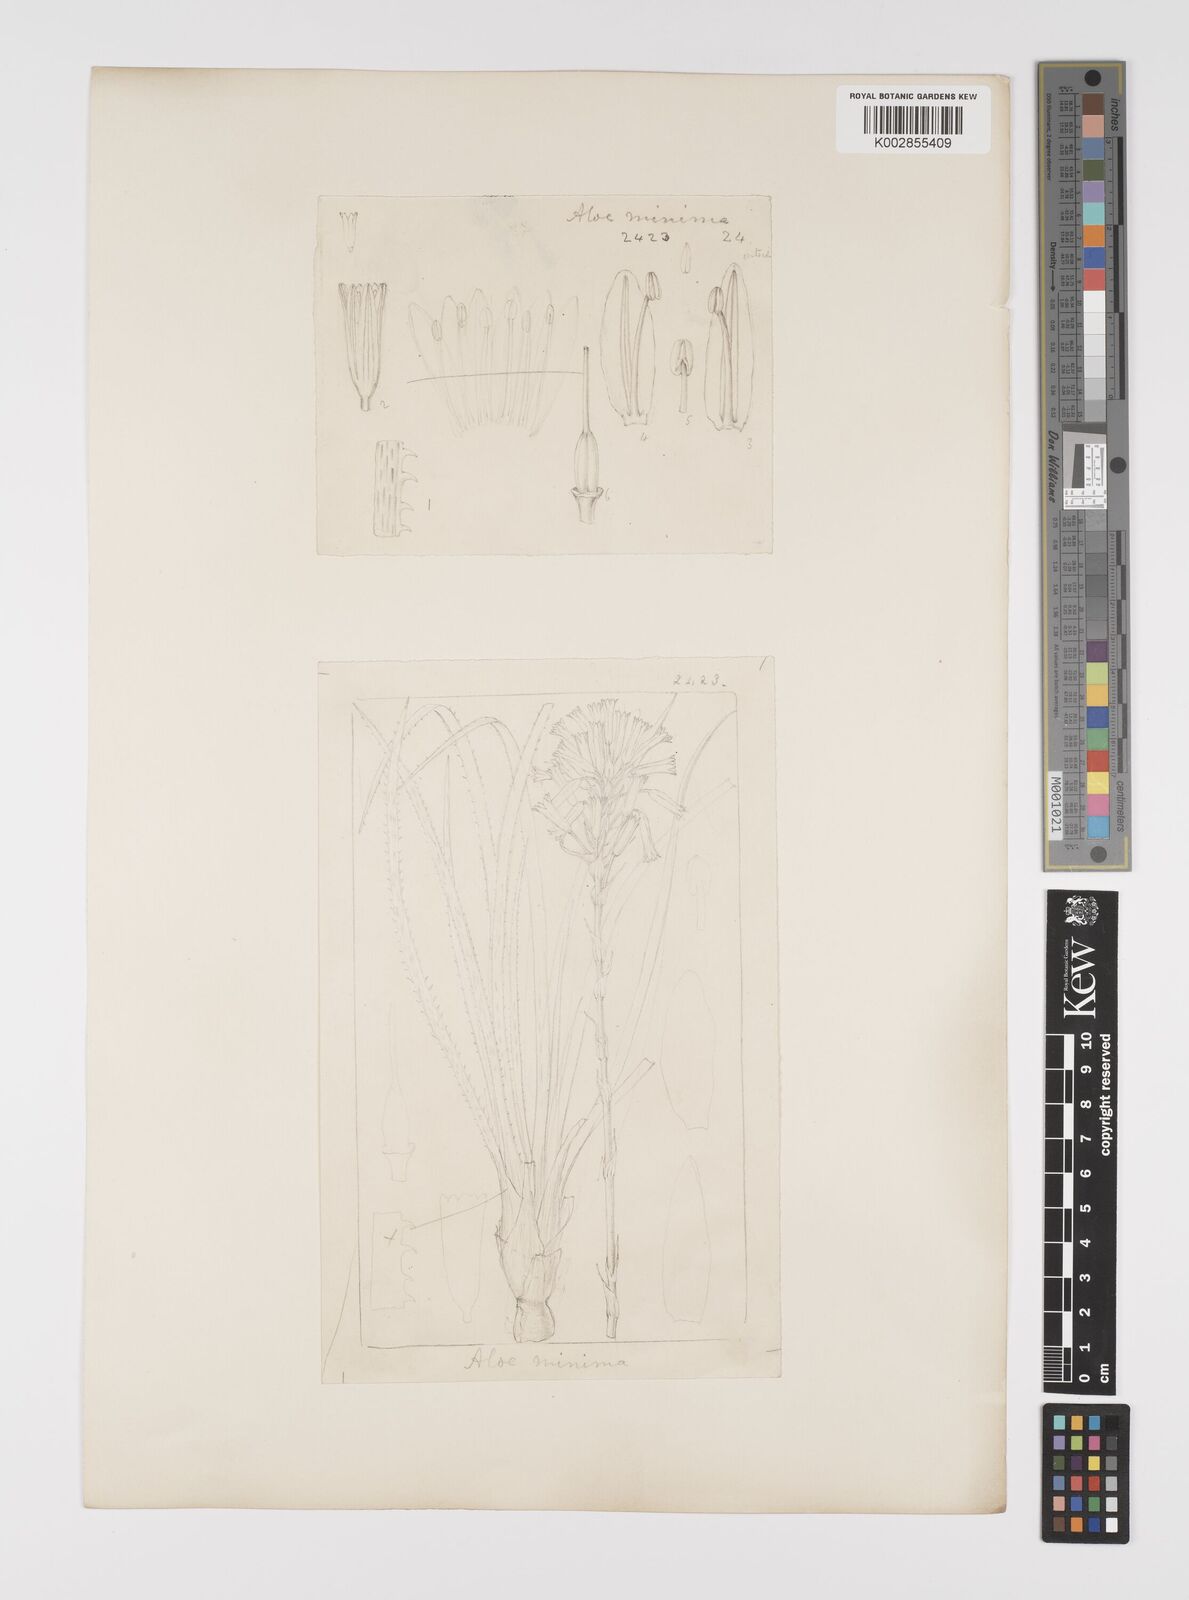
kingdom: Plantae
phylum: Tracheophyta
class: Liliopsida
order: Asparagales
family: Asphodelaceae
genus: Aloe
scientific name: Aloe minima
